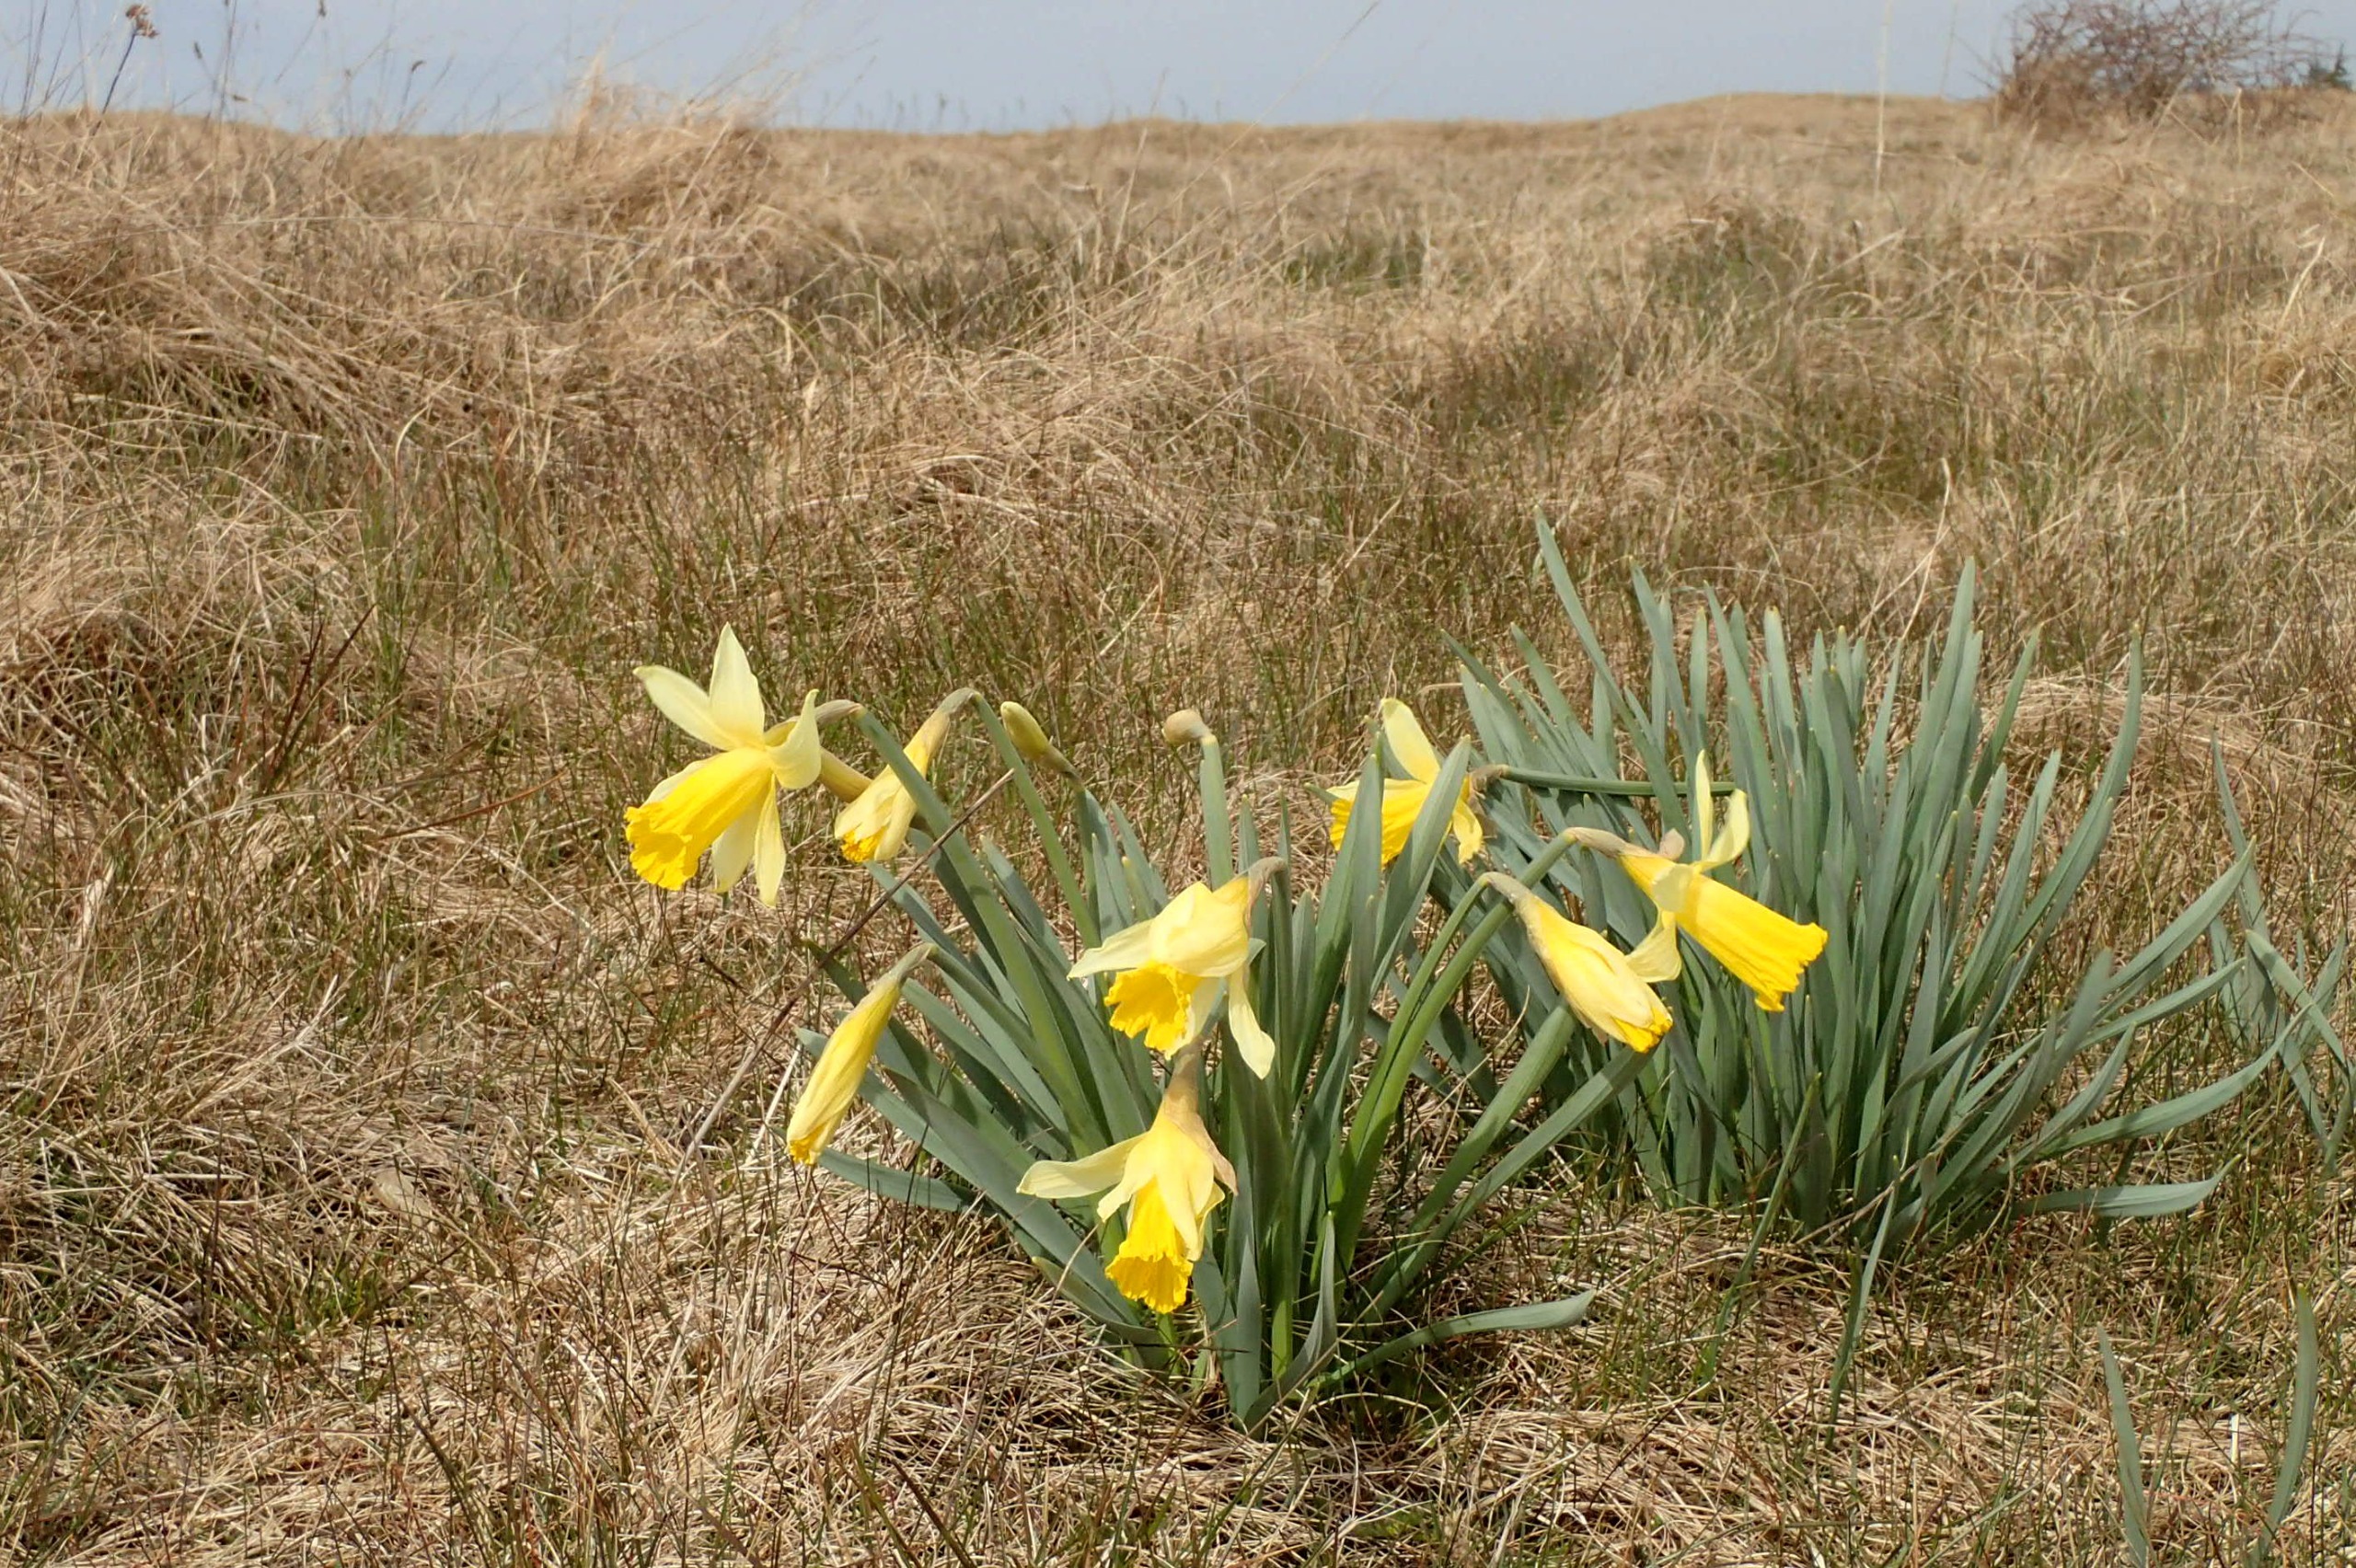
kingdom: Plantae
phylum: Tracheophyta
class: Liliopsida
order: Asparagales
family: Amaryllidaceae
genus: Narcissus
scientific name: Narcissus pseudonarcissus
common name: Påskelilje
